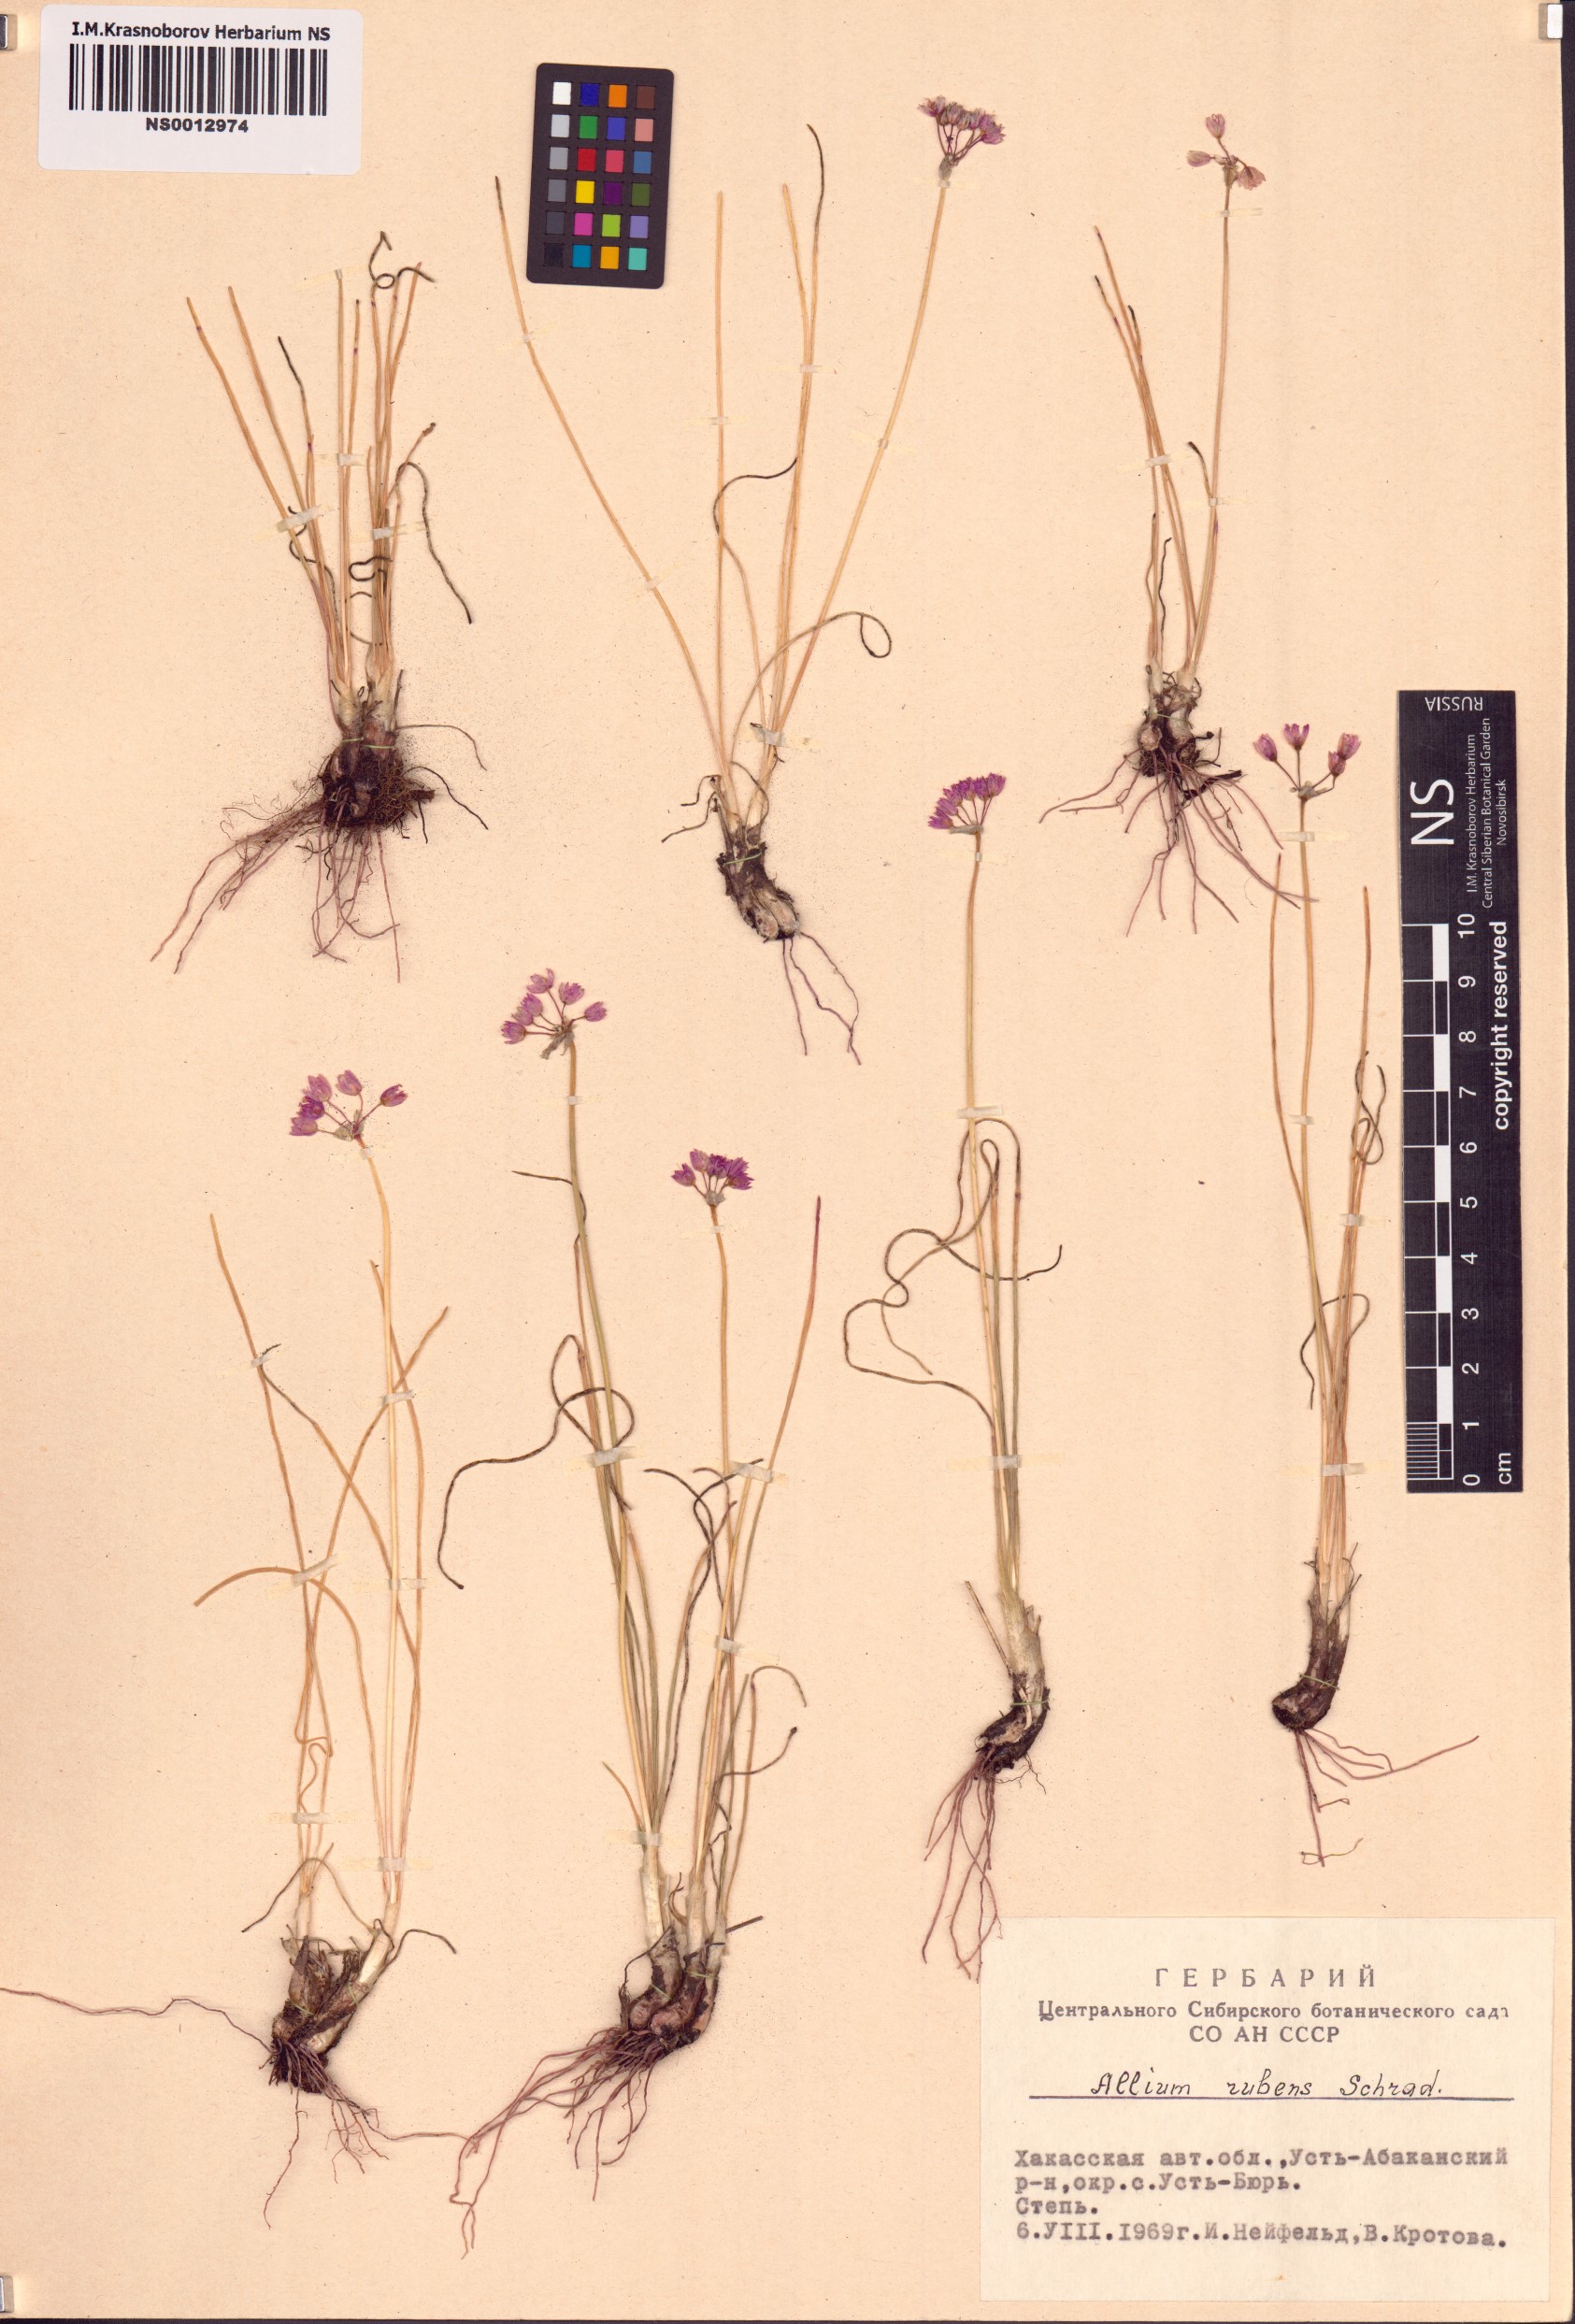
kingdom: Plantae
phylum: Tracheophyta
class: Liliopsida
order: Asparagales
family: Amaryllidaceae
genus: Allium
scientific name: Allium rubens
